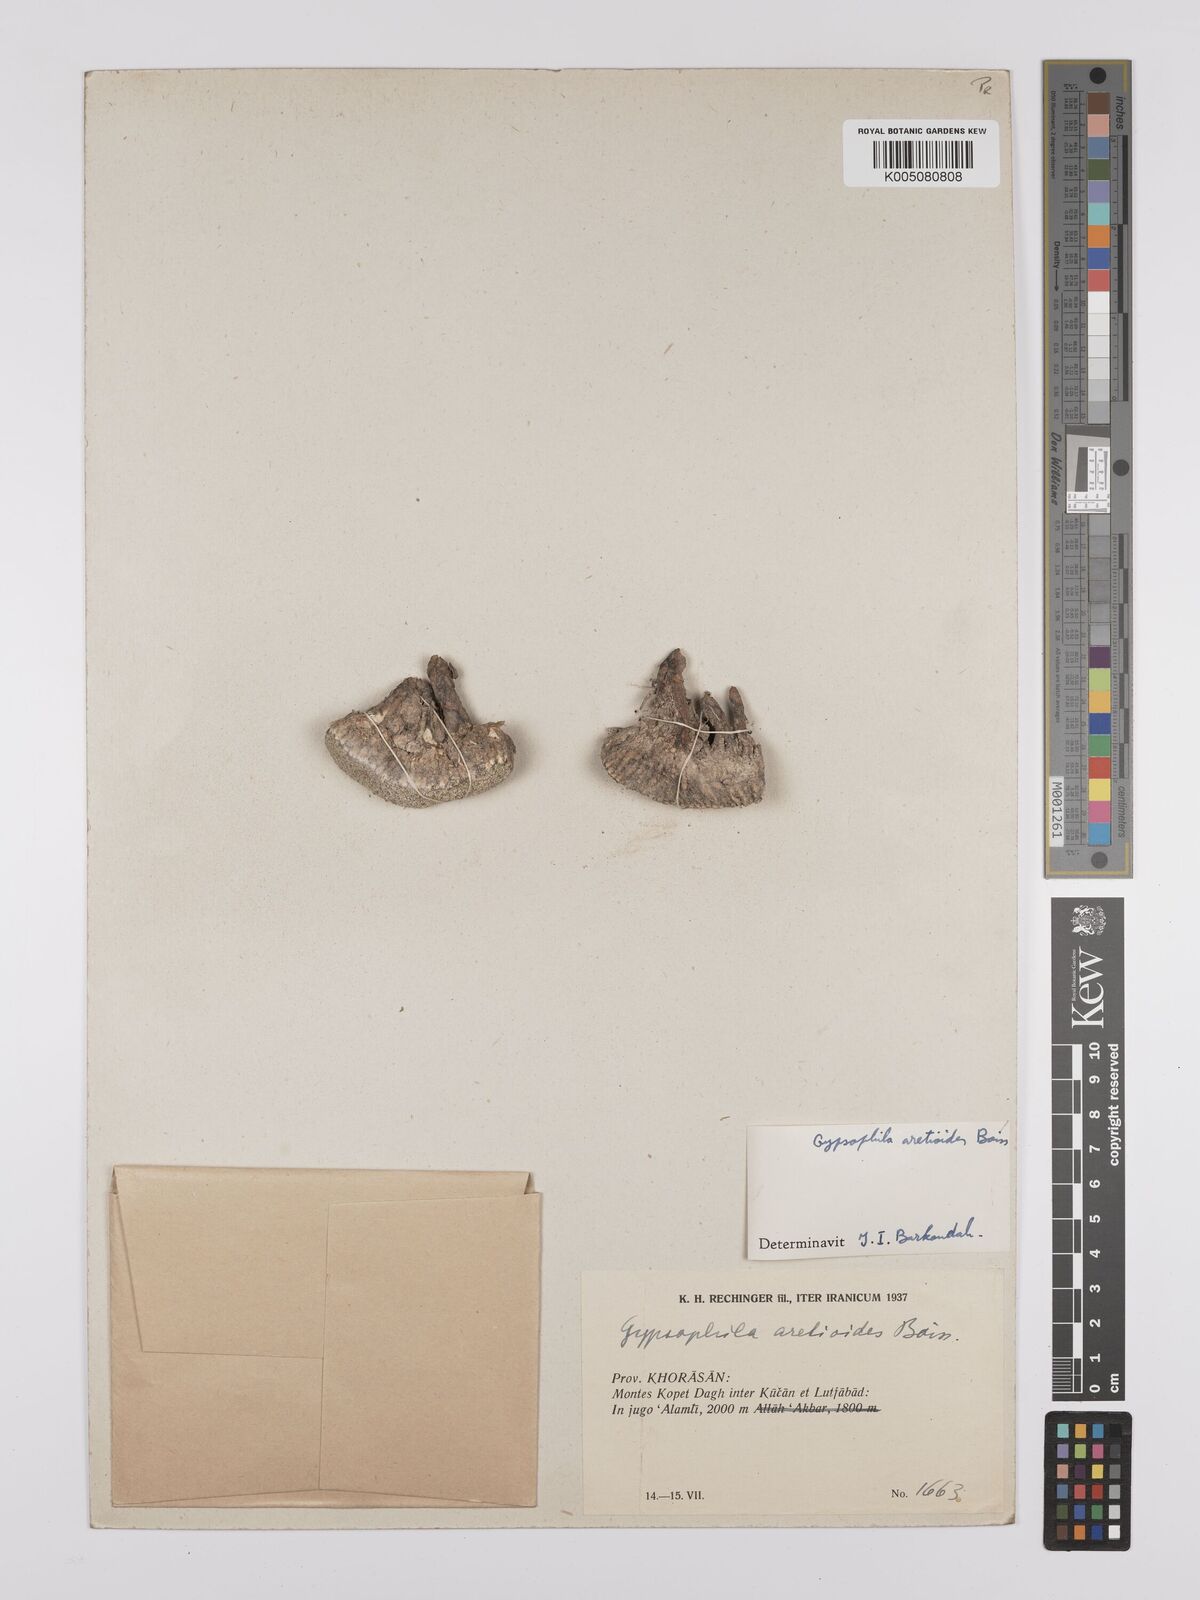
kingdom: Plantae
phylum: Tracheophyta
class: Magnoliopsida
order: Caryophyllales
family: Caryophyllaceae
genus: Gypsophila
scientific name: Gypsophila aretioides
